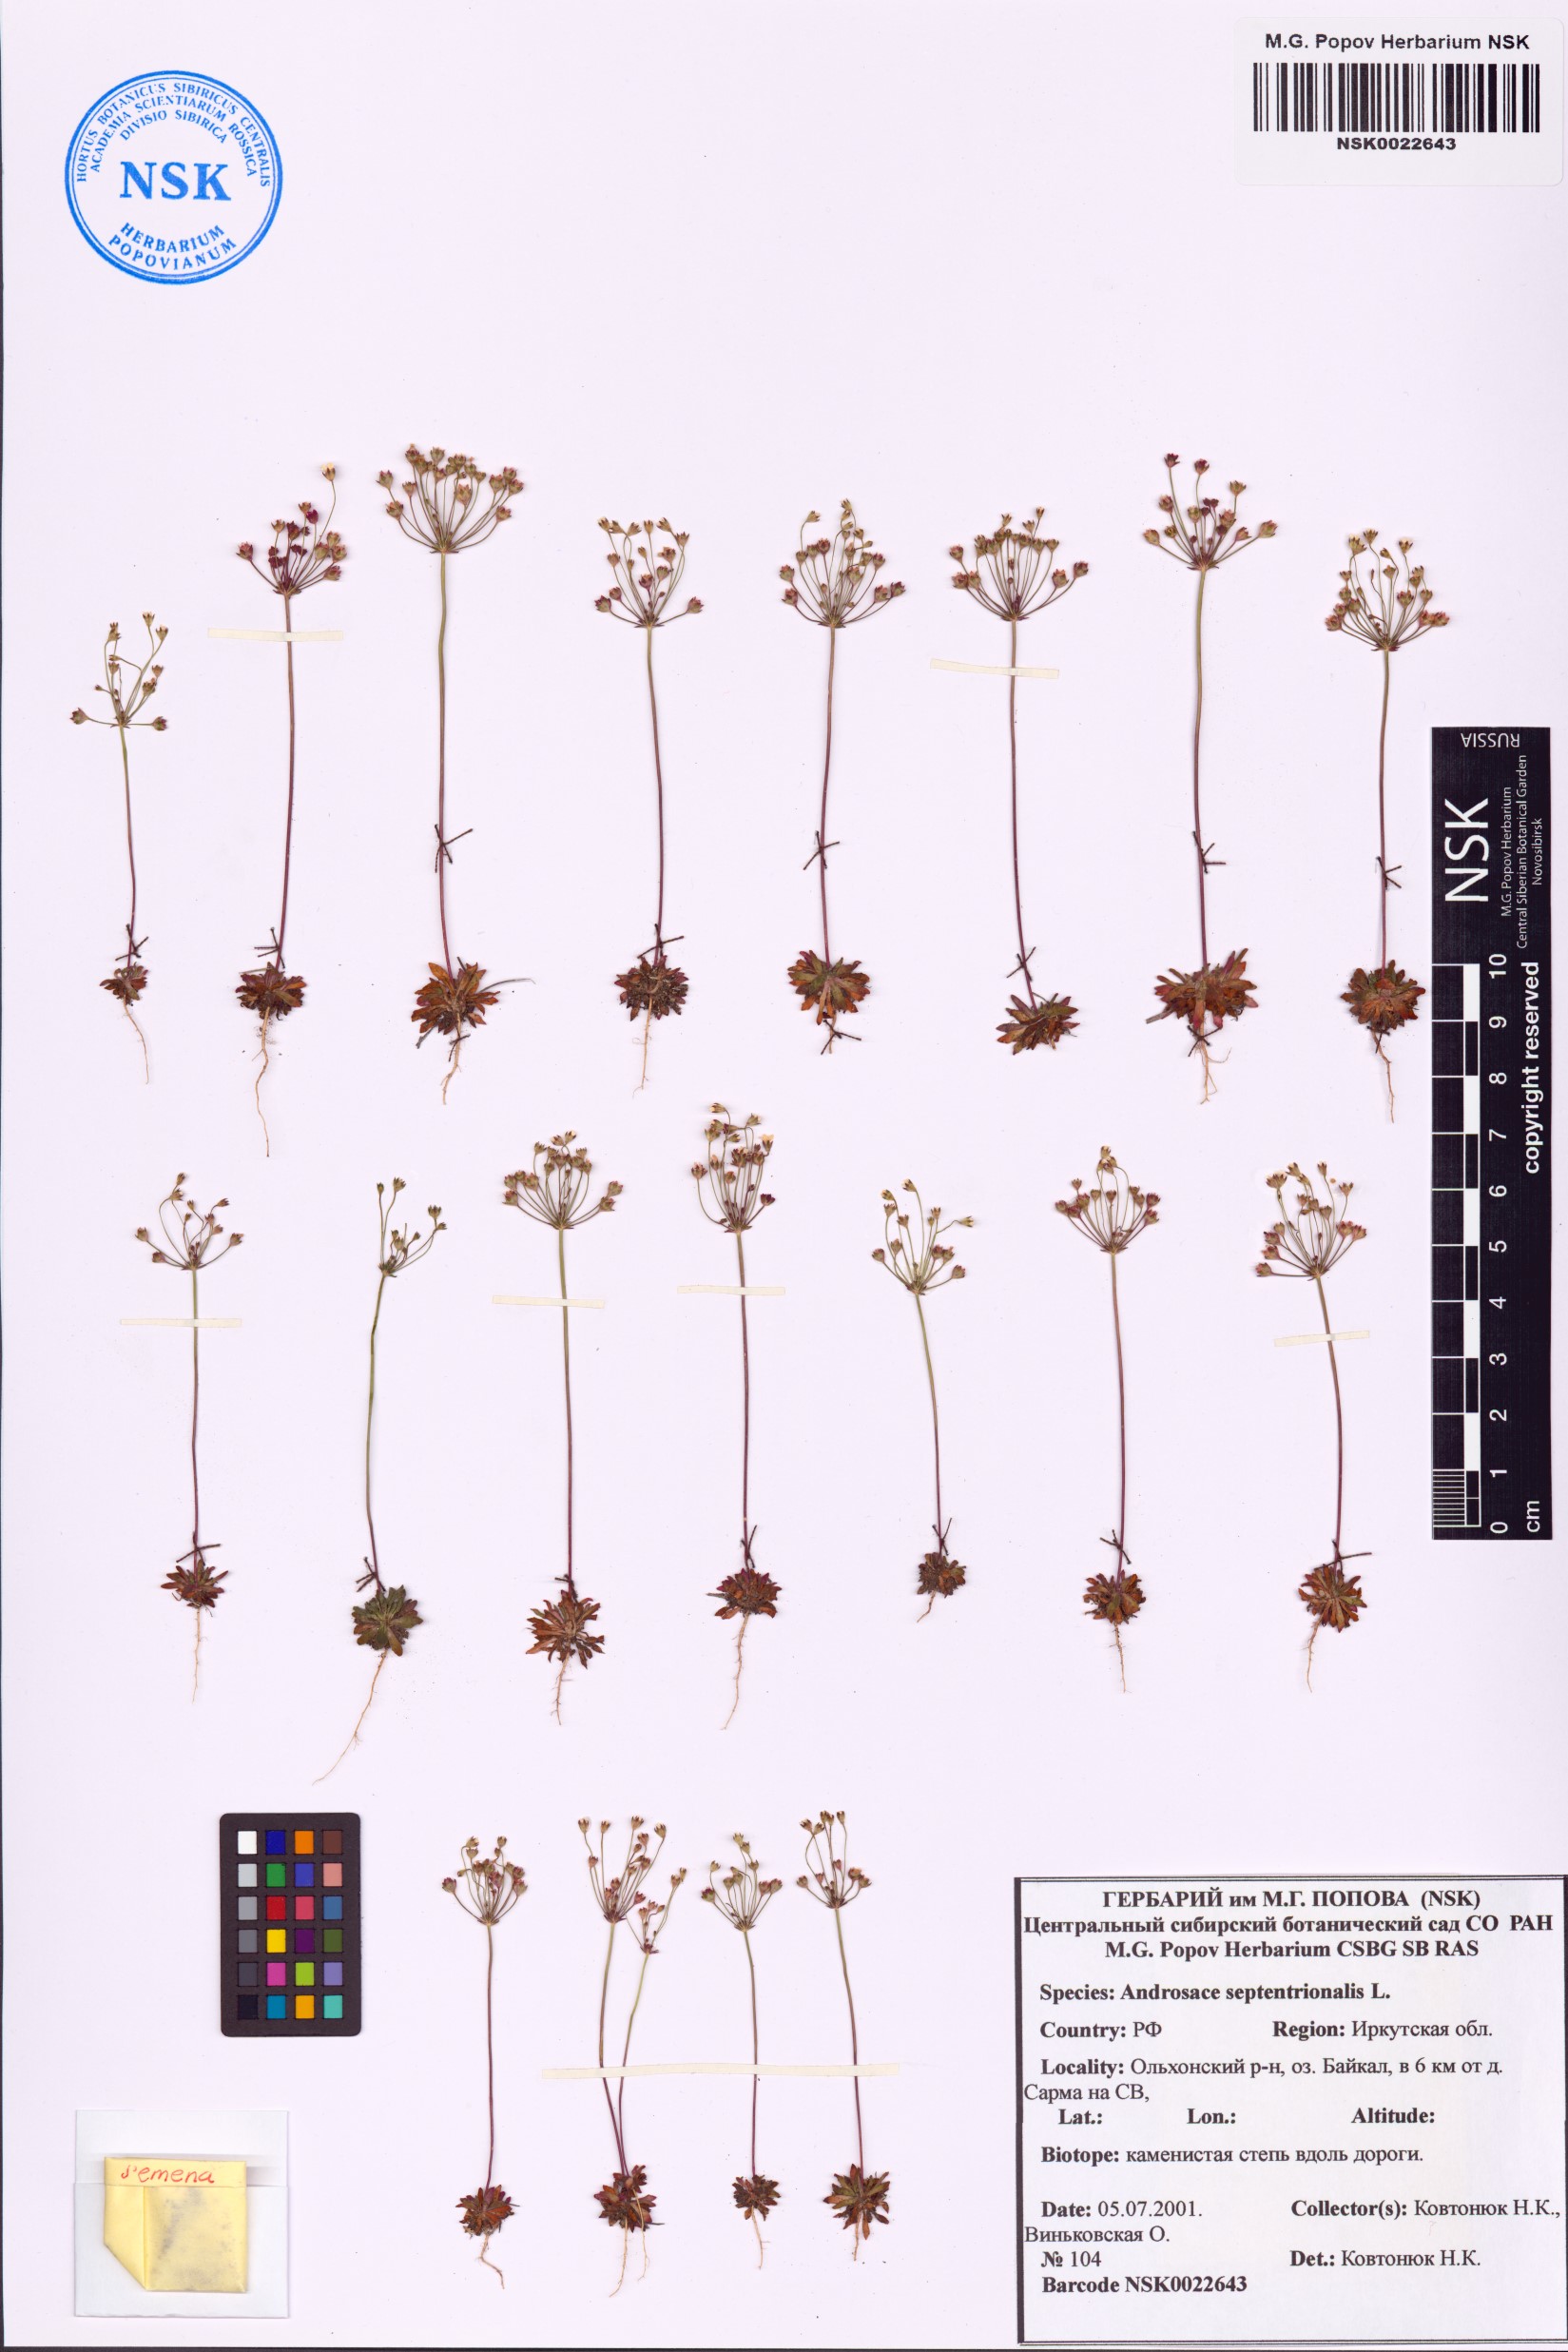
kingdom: Plantae
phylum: Tracheophyta
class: Magnoliopsida
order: Ericales
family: Primulaceae
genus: Androsace
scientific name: Androsace septentrionalis
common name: Hairy northern fairy-candelabra
